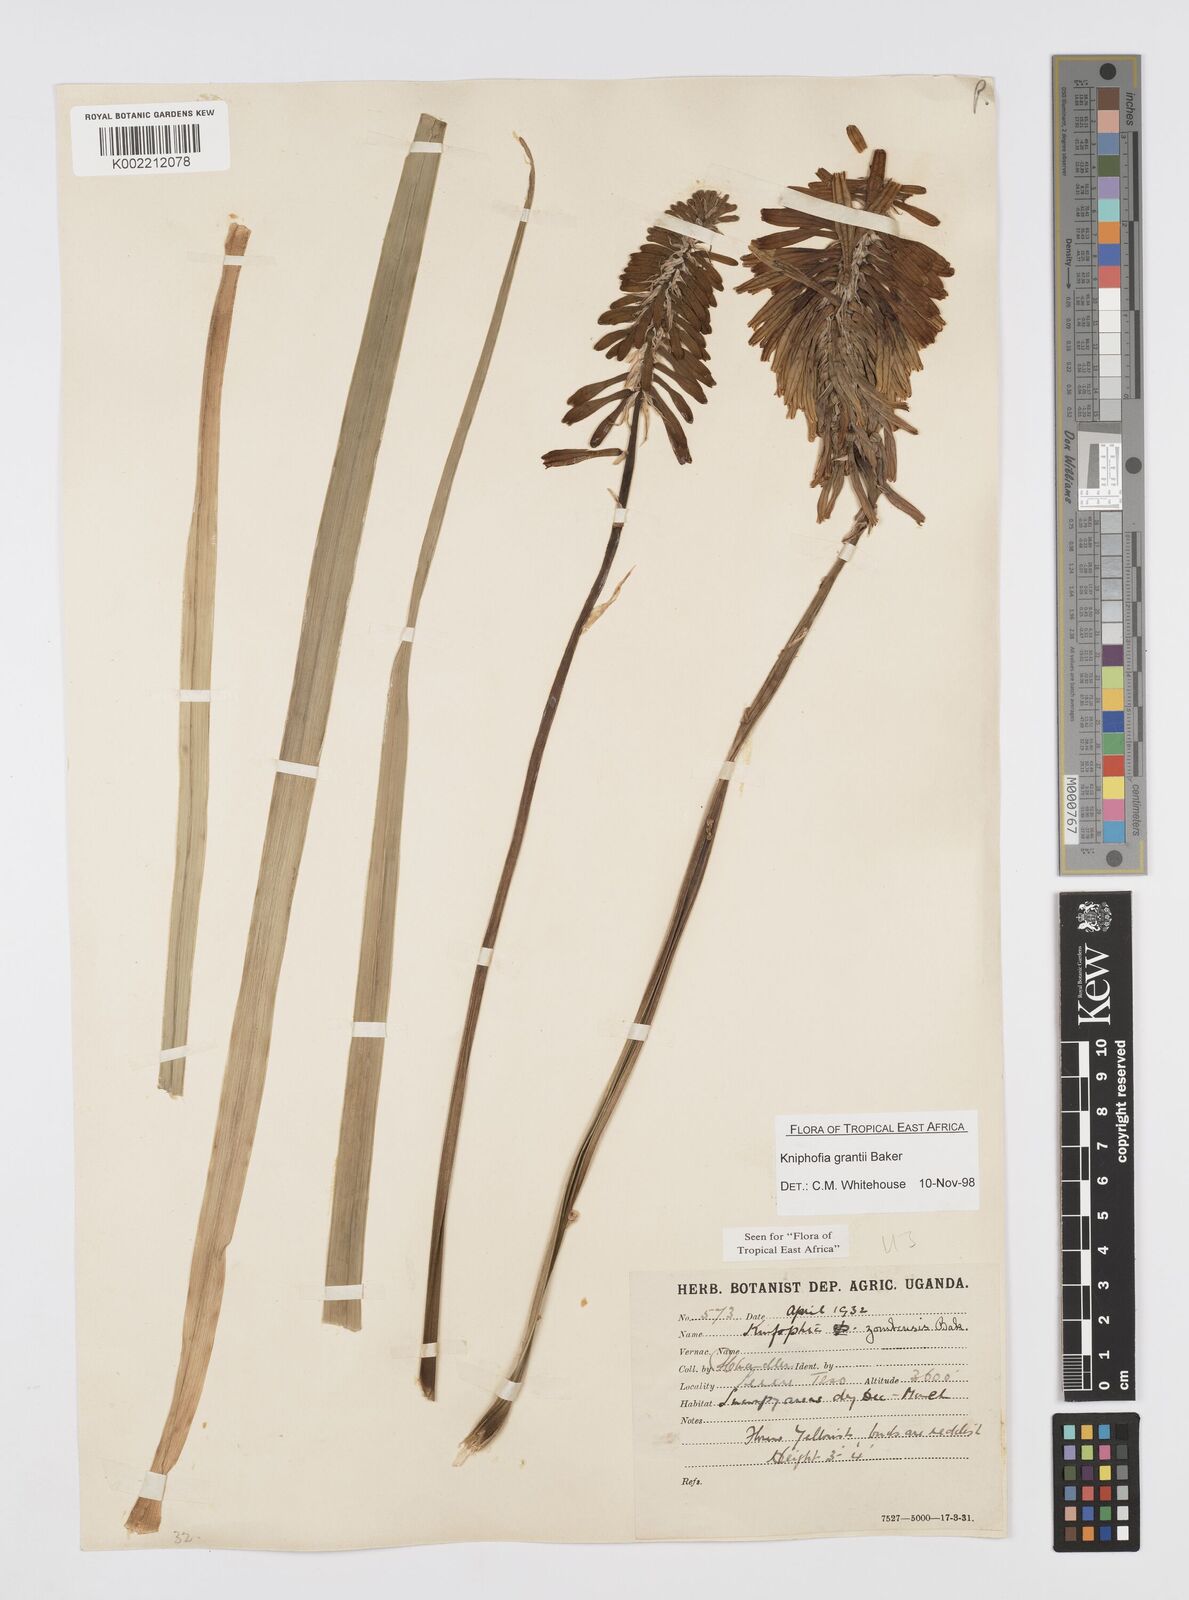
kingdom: Plantae
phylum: Tracheophyta
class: Liliopsida
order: Asparagales
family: Asphodelaceae
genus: Kniphofia
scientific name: Kniphofia grantii
